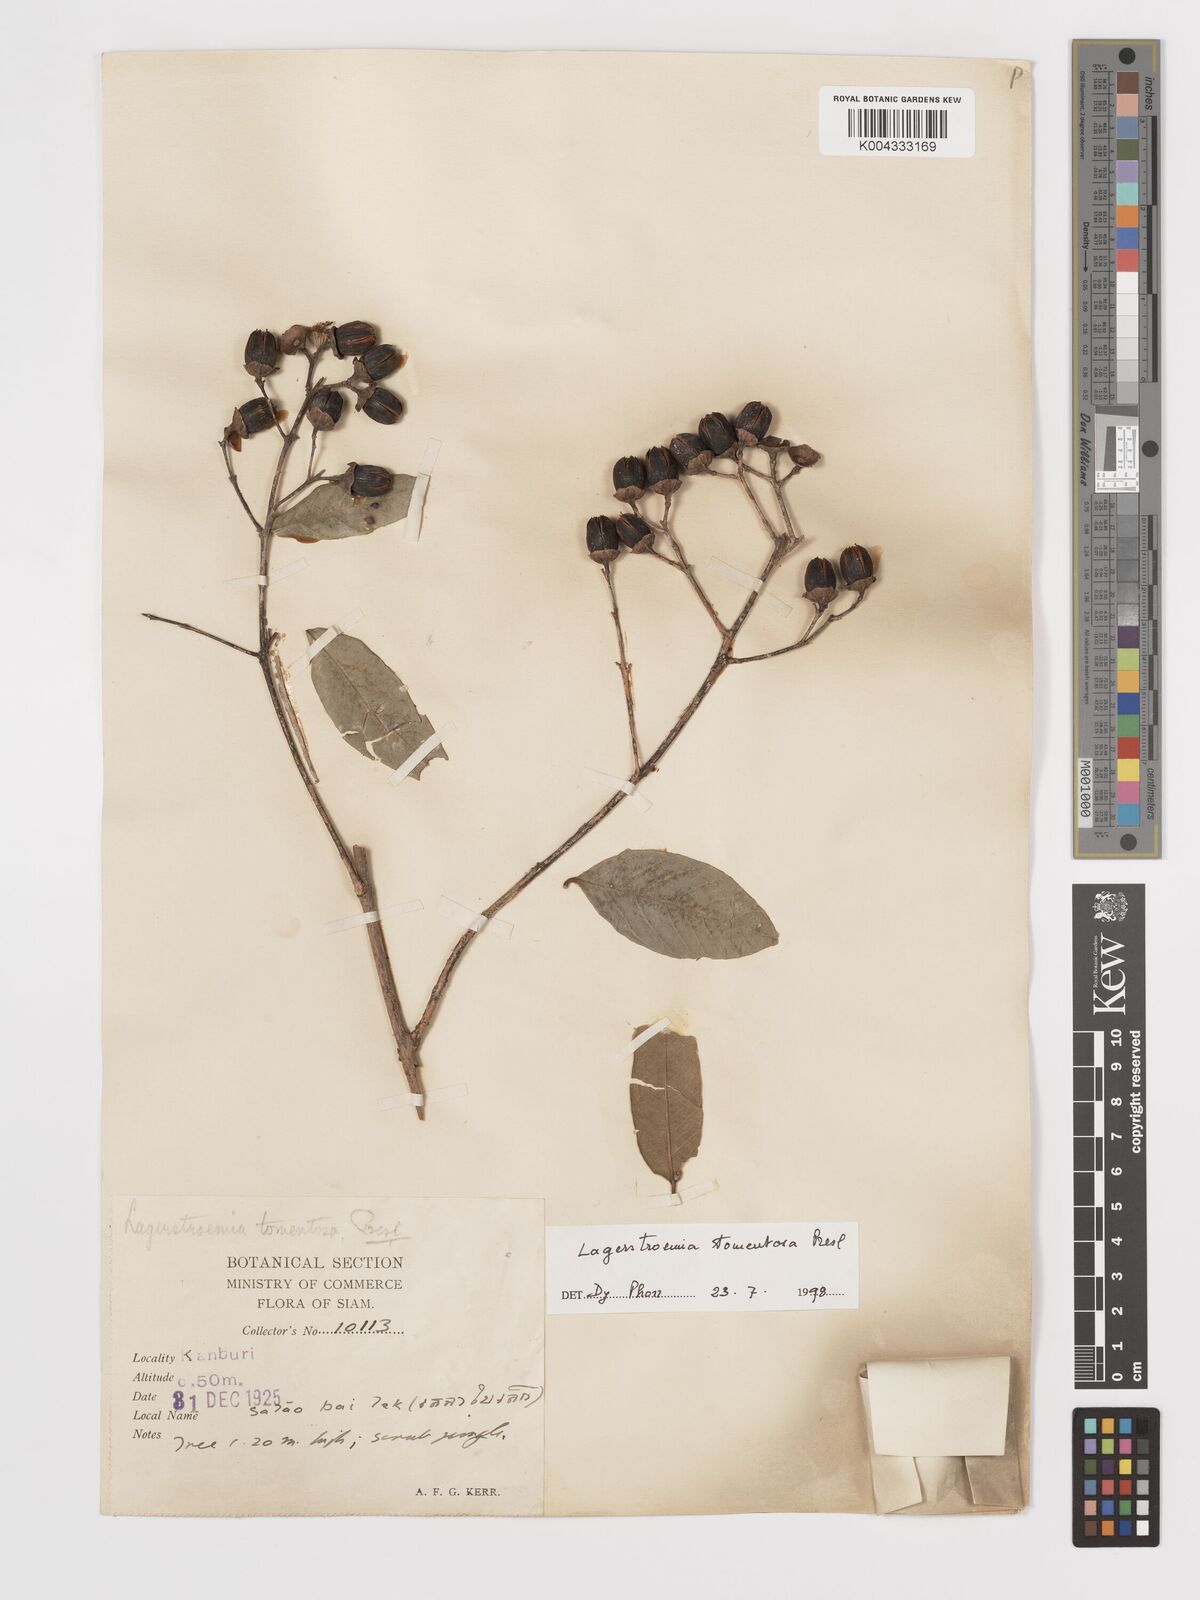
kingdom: Plantae
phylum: Tracheophyta
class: Magnoliopsida
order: Myrtales
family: Lythraceae
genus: Lagerstroemia
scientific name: Lagerstroemia tomentosa
